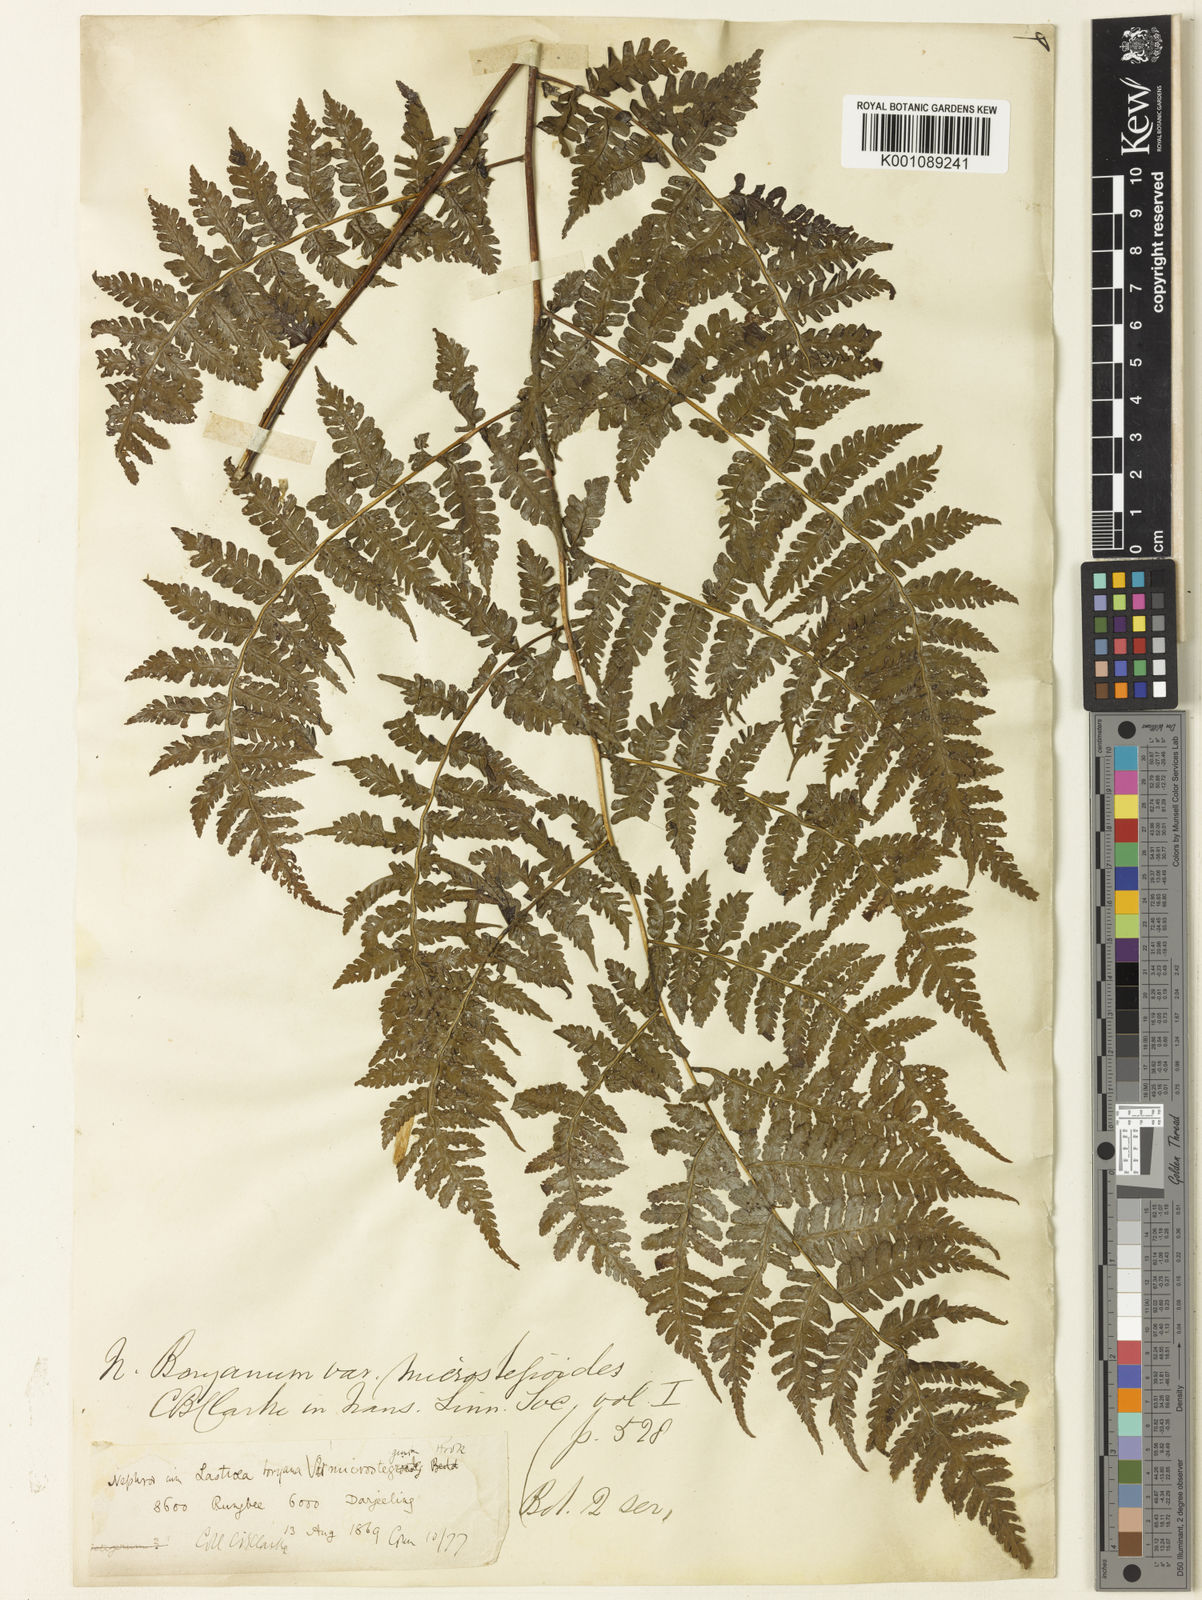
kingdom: Plantae
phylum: Tracheophyta
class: Polypodiopsida
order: Polypodiales
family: Athyriaceae
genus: Deparia
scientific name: Deparia boryana
